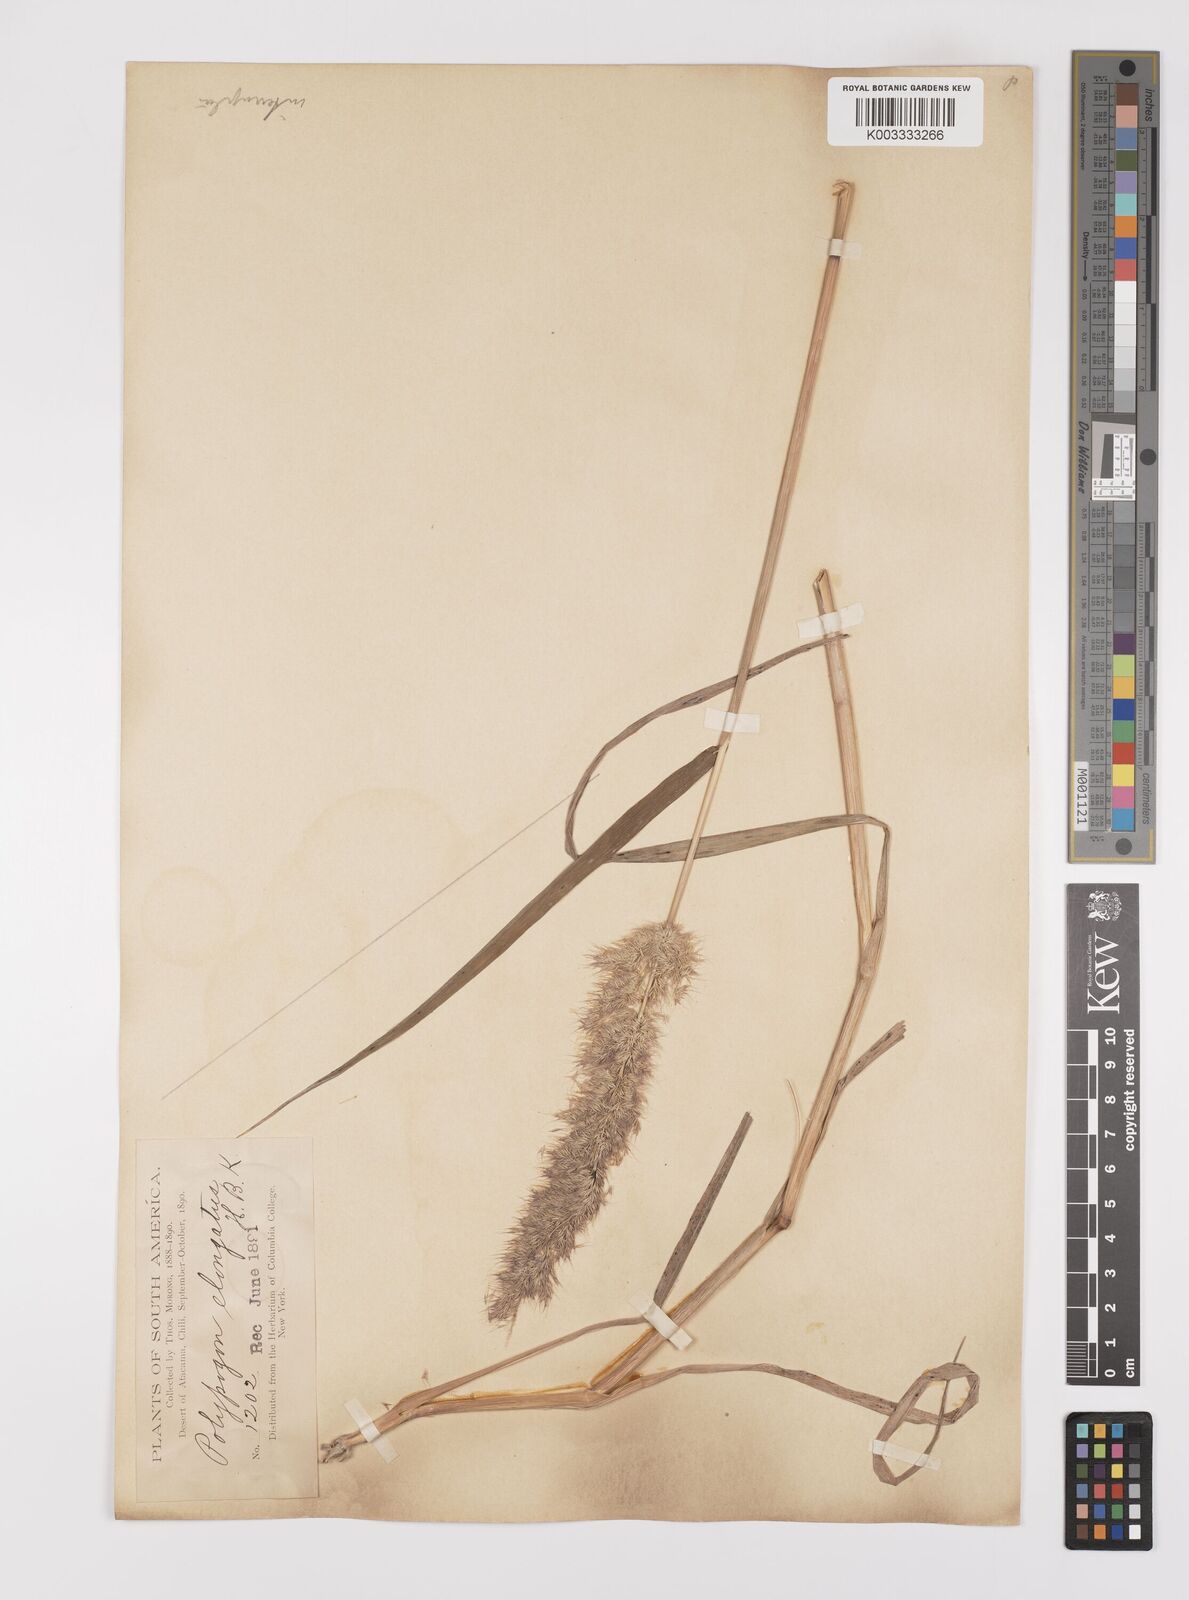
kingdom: Plantae
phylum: Tracheophyta
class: Liliopsida
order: Poales
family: Poaceae
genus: Polypogon
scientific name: Polypogon interruptus
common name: Ditch polypogon
